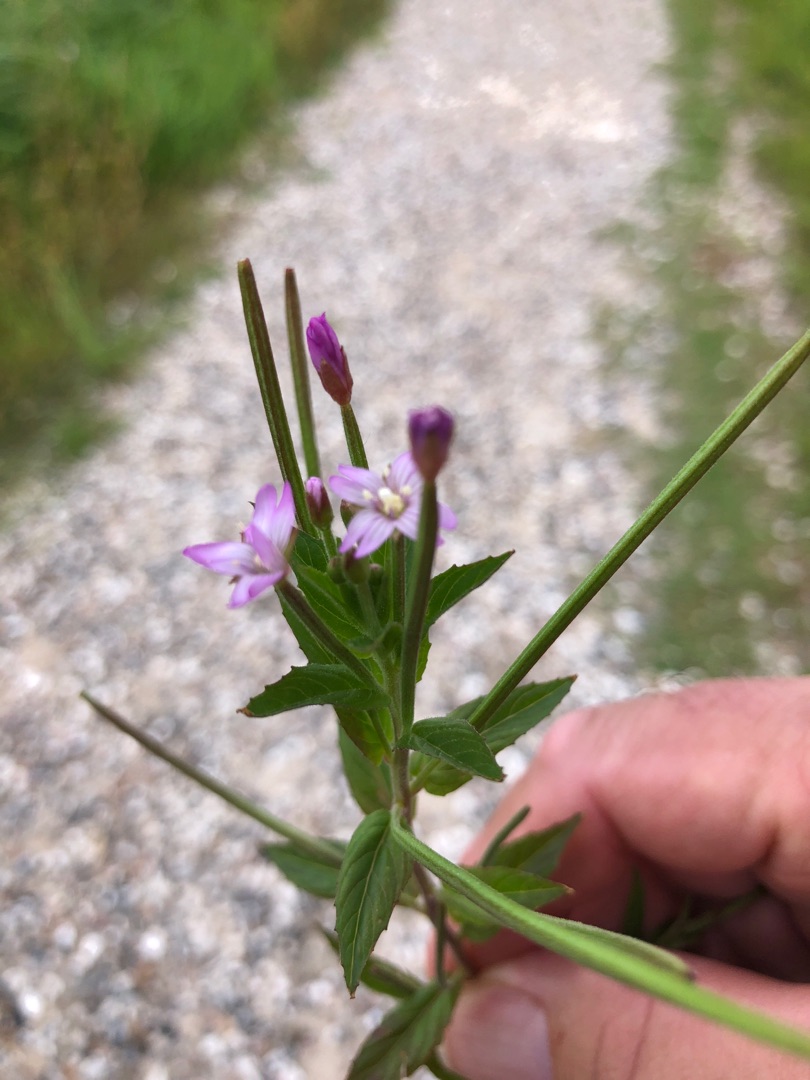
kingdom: Plantae
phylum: Tracheophyta
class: Magnoliopsida
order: Myrtales
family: Onagraceae
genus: Epilobium
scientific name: Epilobium ciliatum
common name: Kirtlet dueurt
